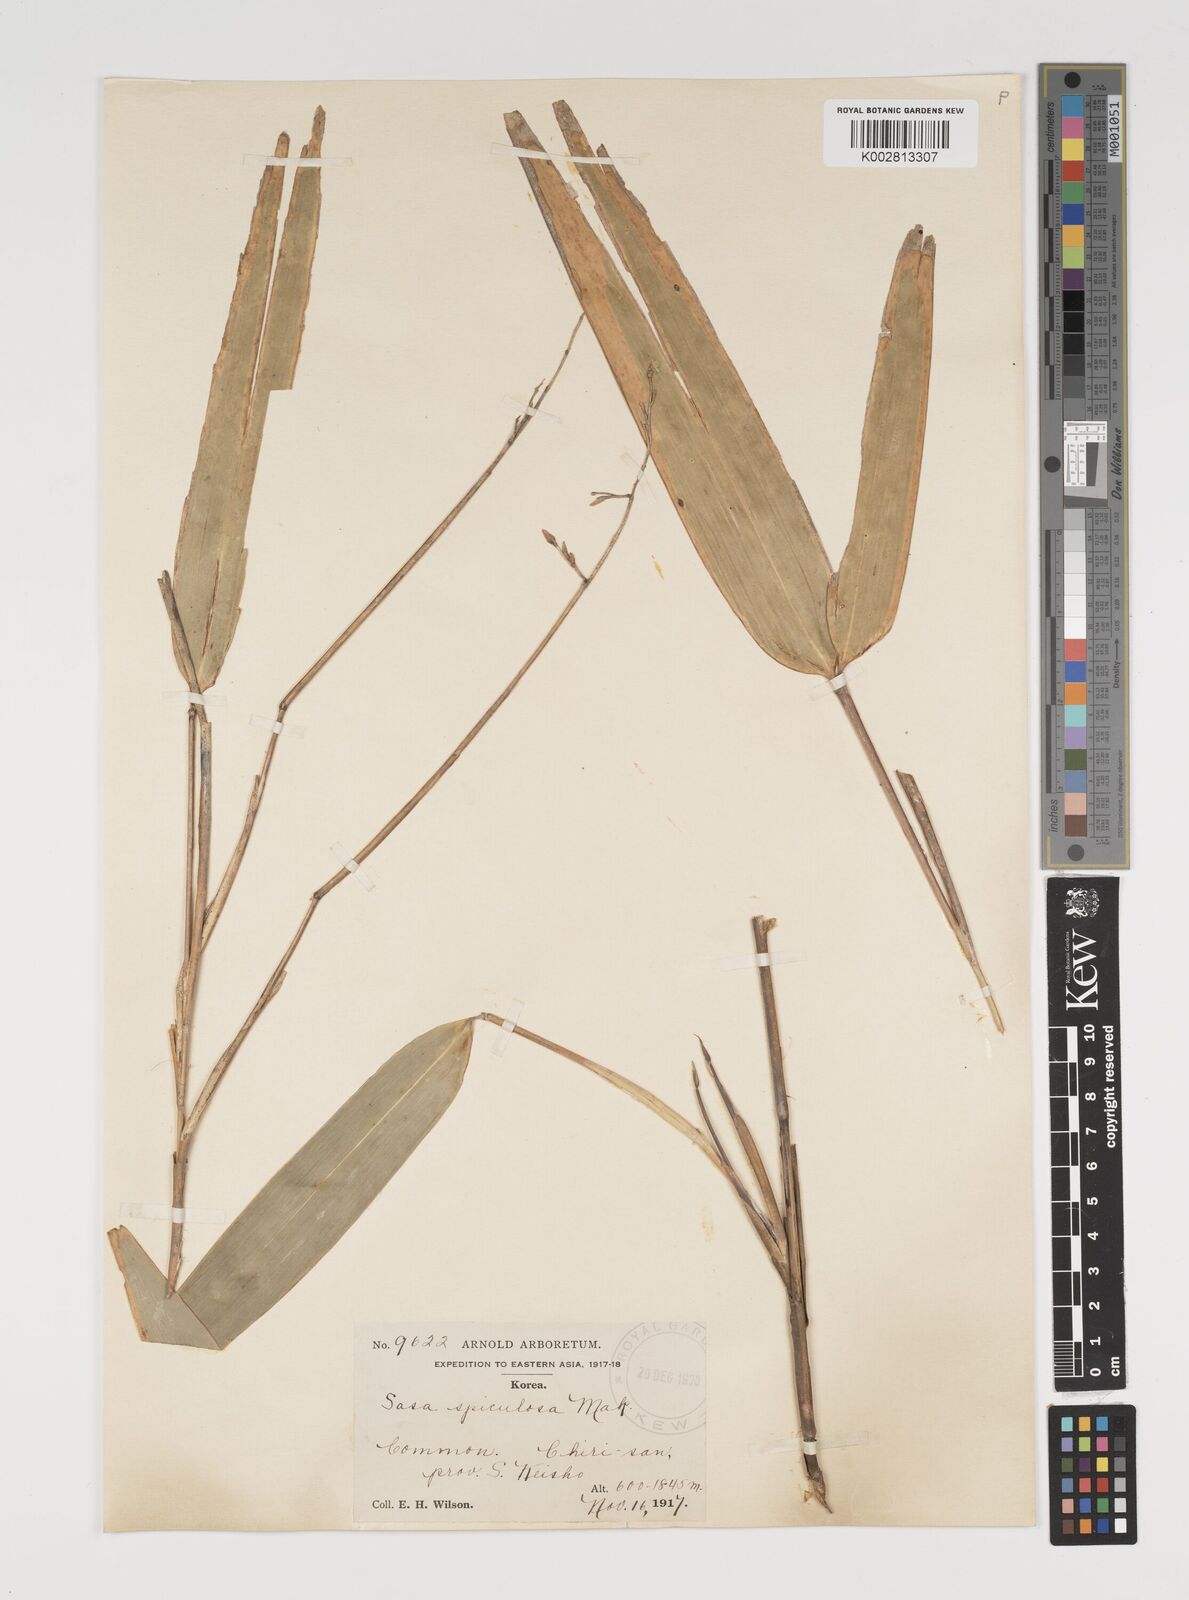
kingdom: Plantae
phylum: Tracheophyta
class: Liliopsida
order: Poales
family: Poaceae
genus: Sasamorpha
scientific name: Sasamorpha borealis
